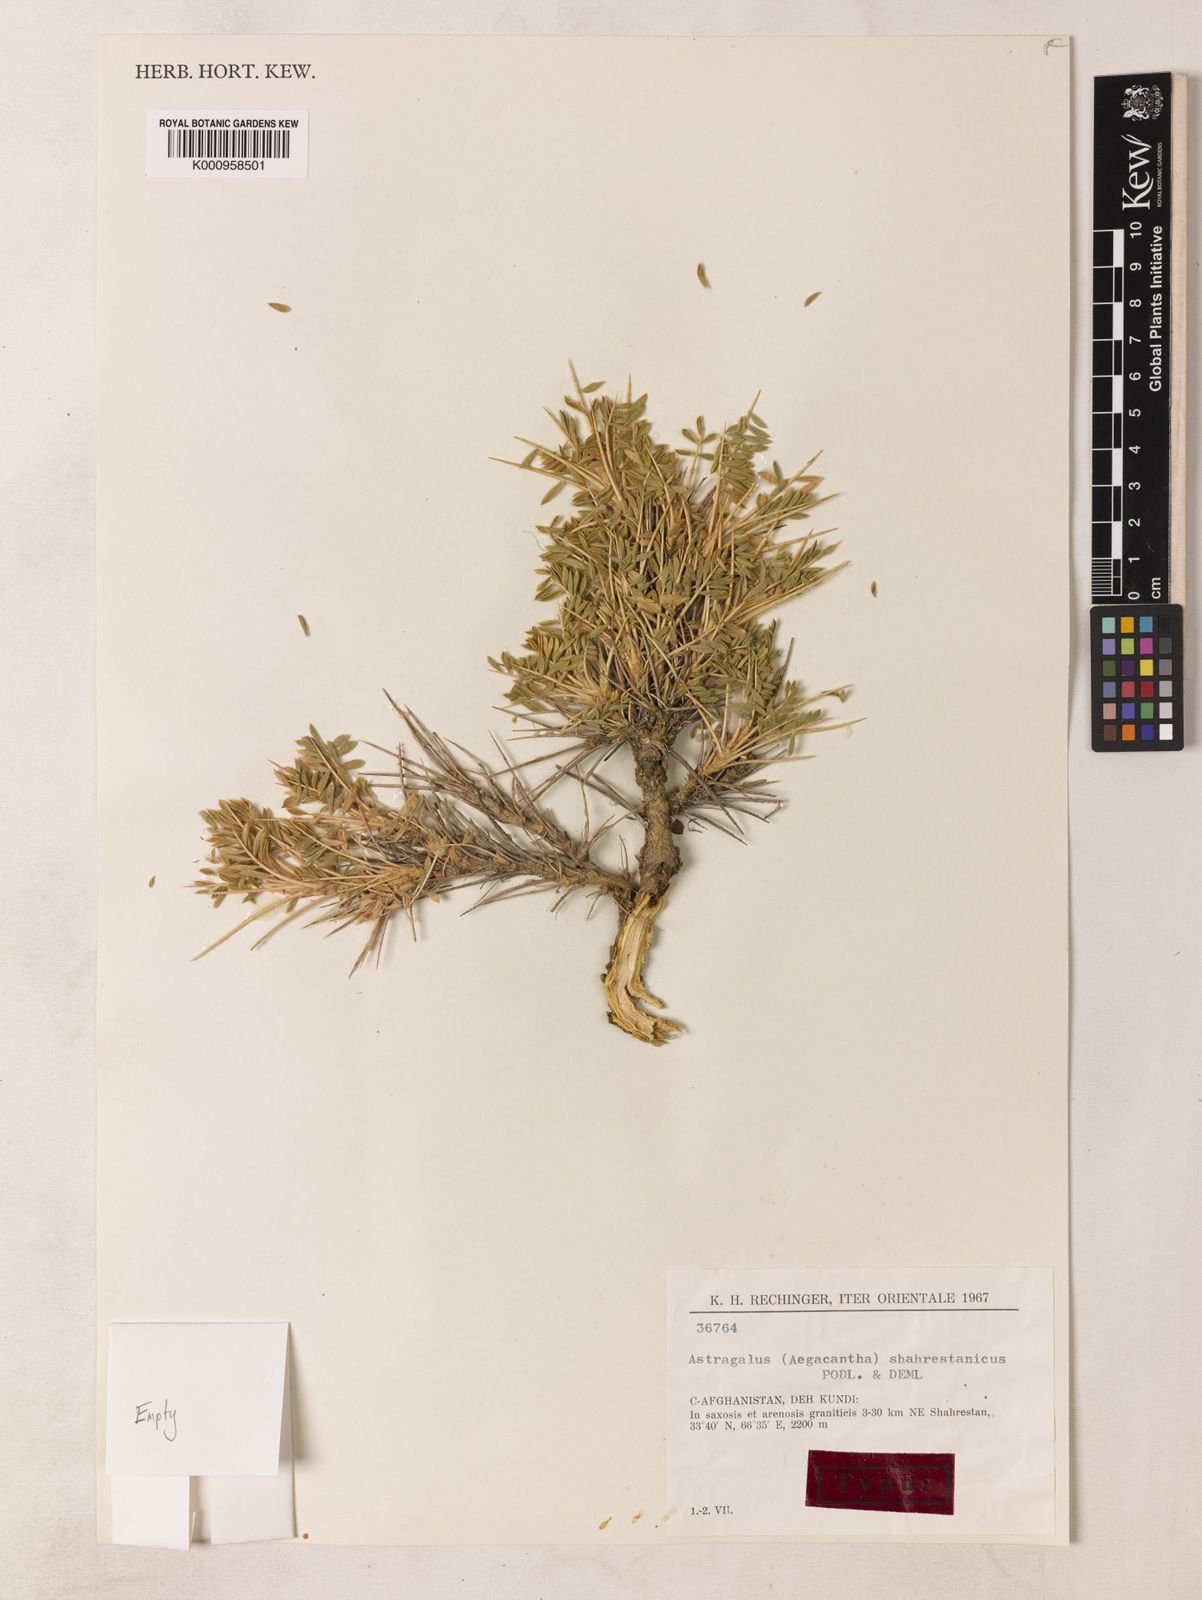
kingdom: Plantae
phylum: Tracheophyta
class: Magnoliopsida
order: Fabales
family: Fabaceae
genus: Astragalus
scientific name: Astragalus
